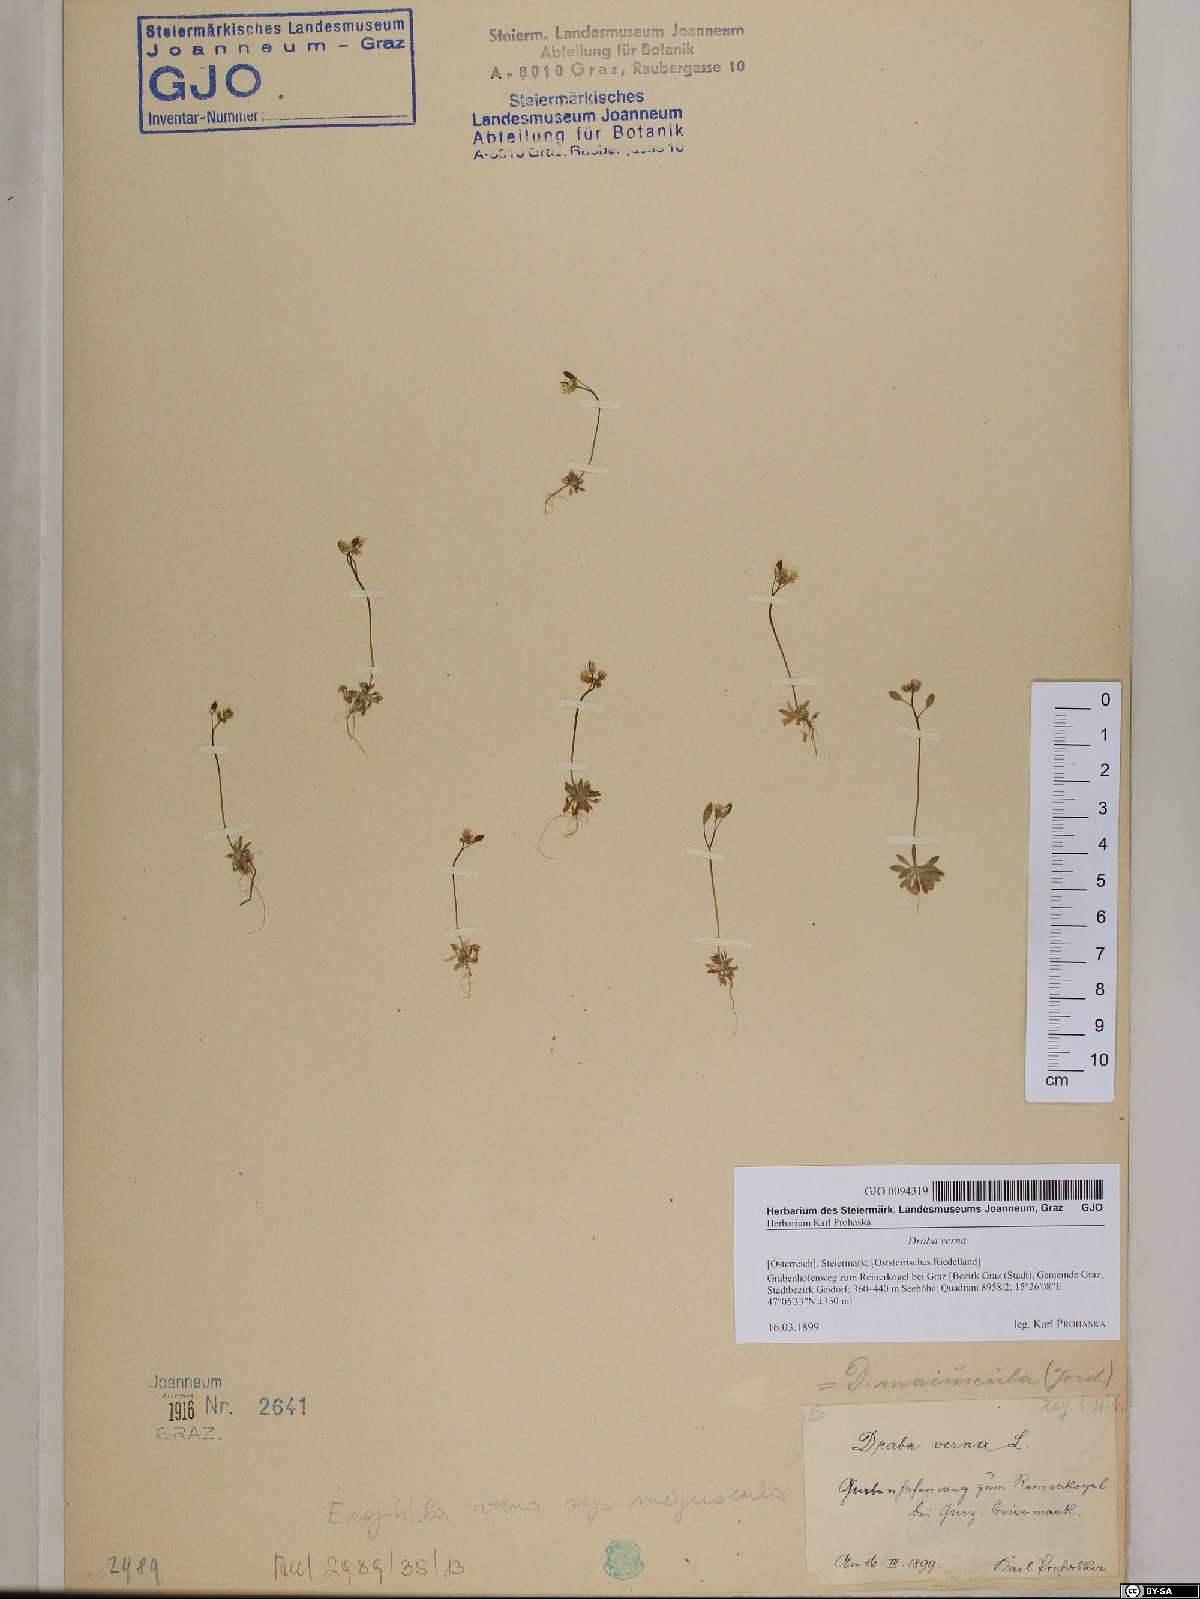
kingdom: Plantae
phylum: Tracheophyta
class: Magnoliopsida
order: Brassicales
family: Brassicaceae
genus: Draba
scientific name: Draba verna
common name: Spring draba
